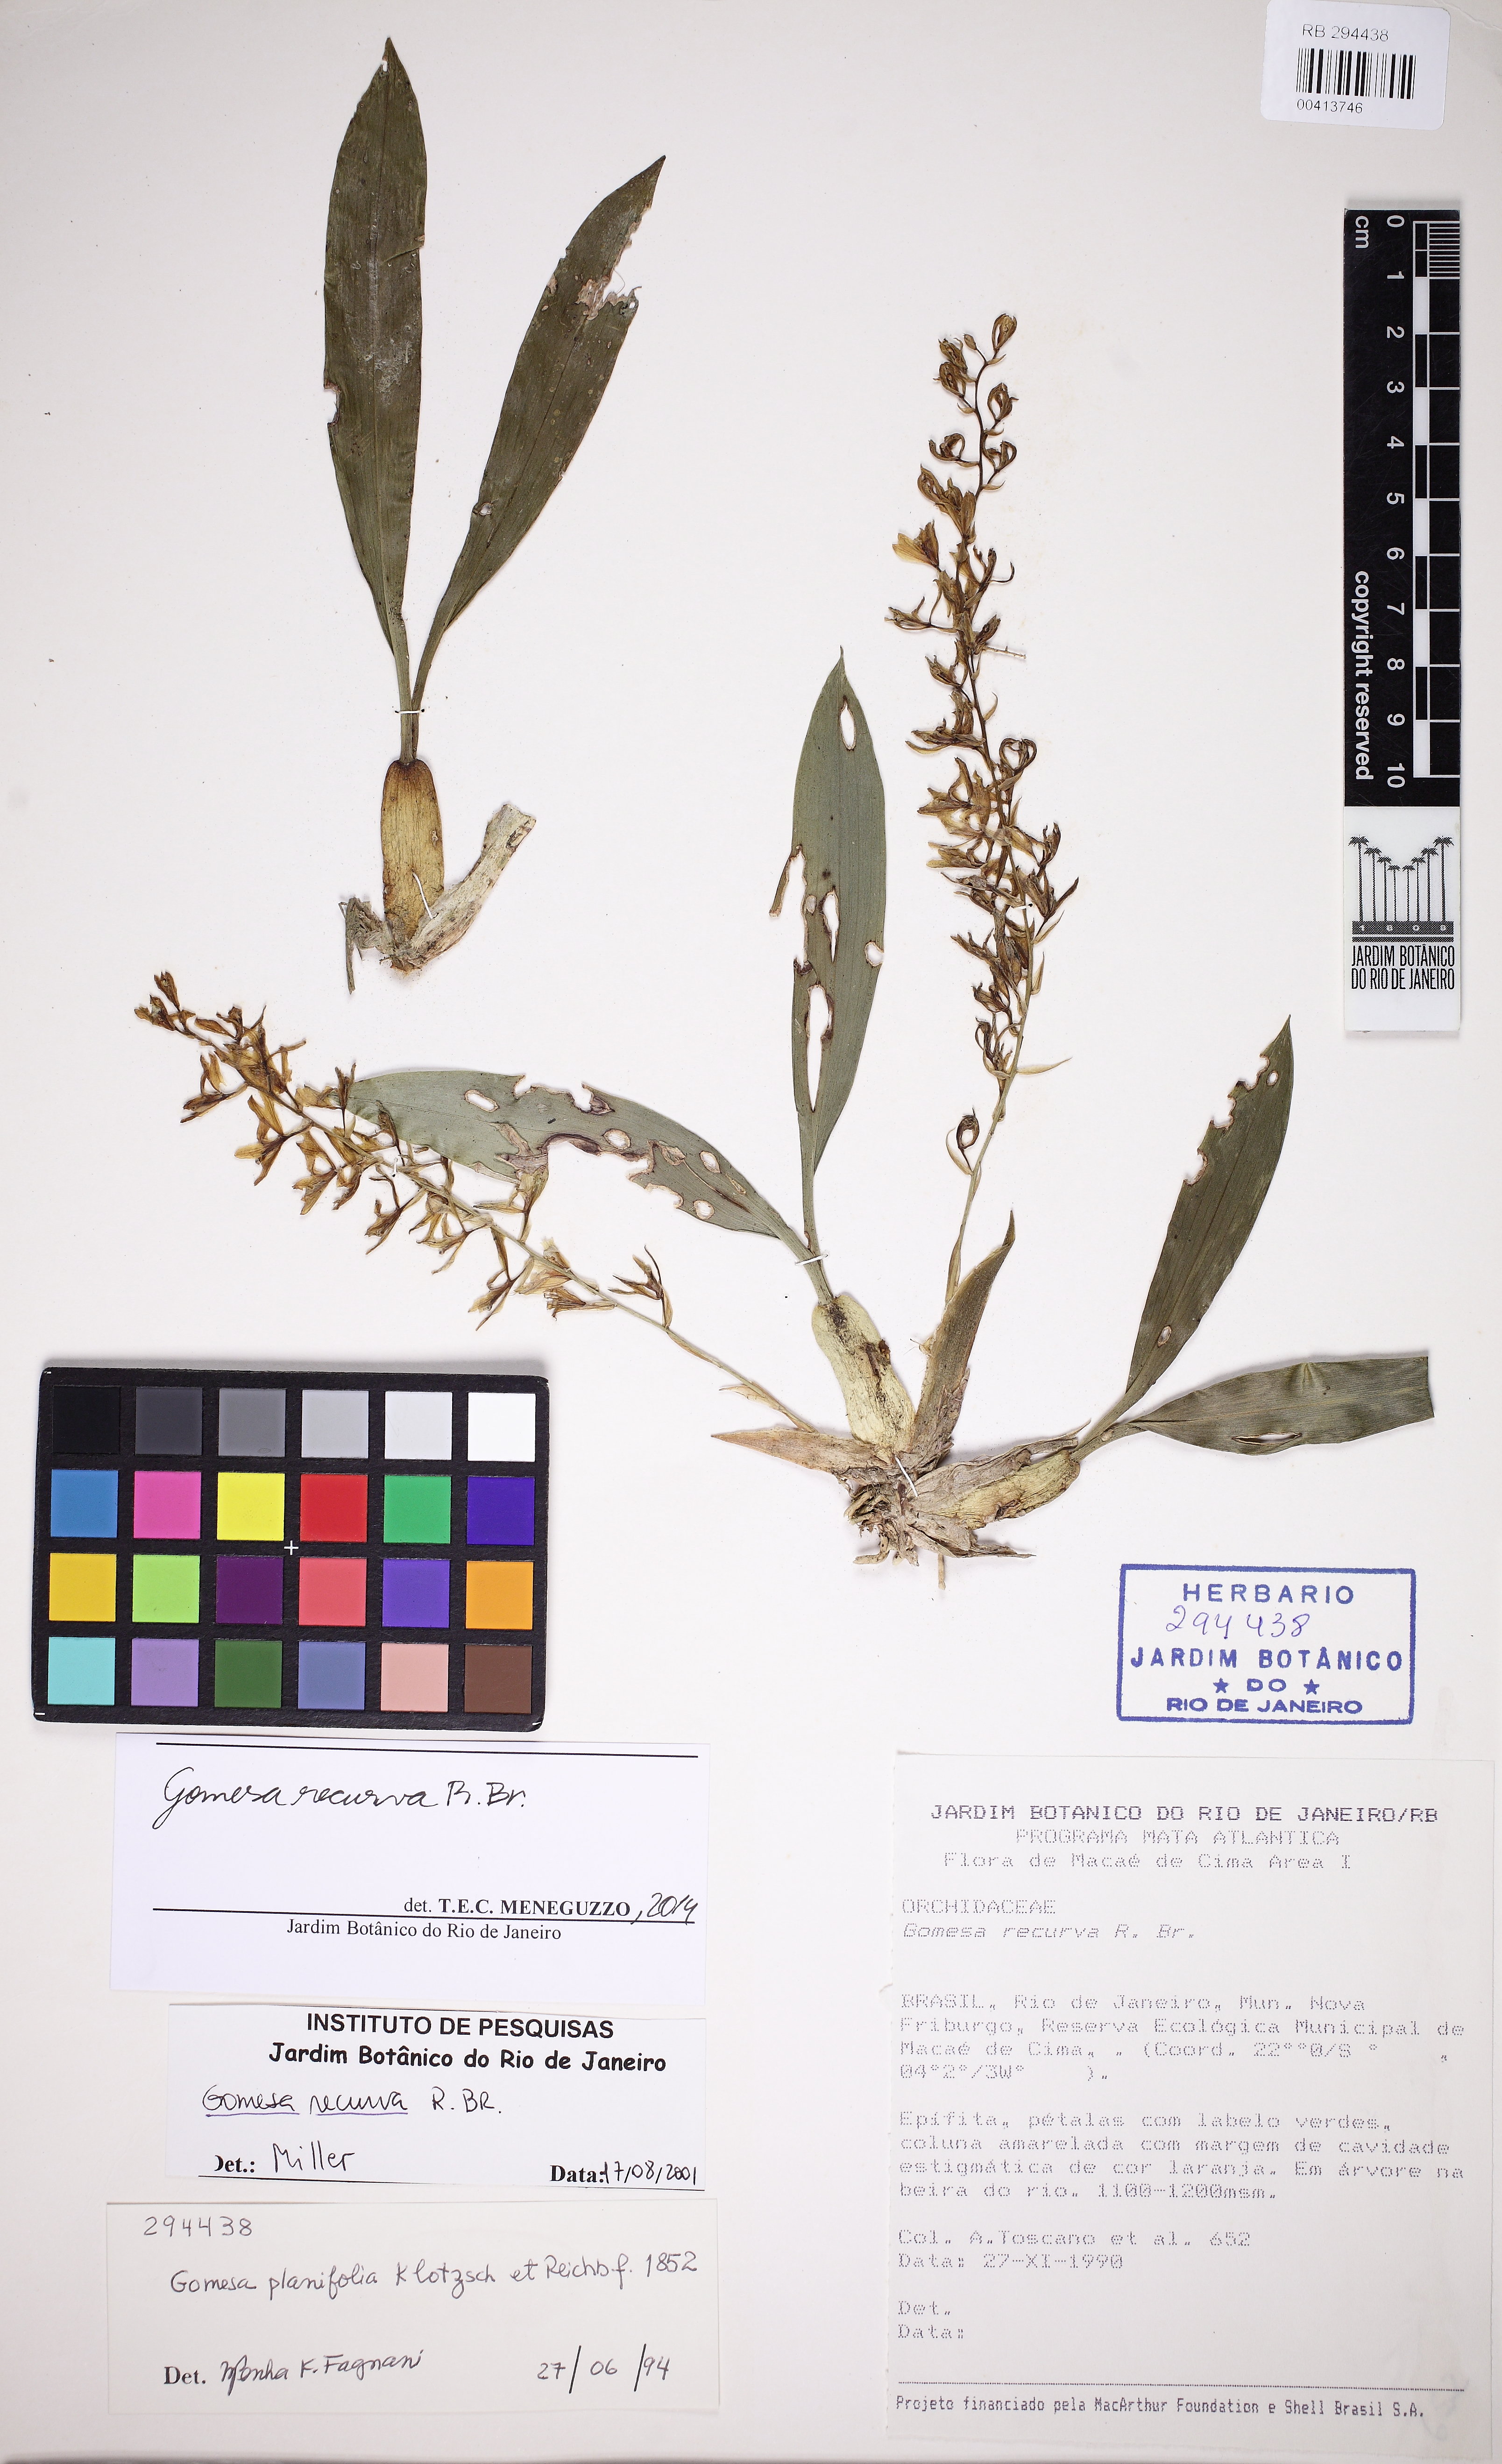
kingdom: Plantae
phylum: Tracheophyta
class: Liliopsida
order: Asparagales
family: Orchidaceae
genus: Gomesa
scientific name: Gomesa recurva
